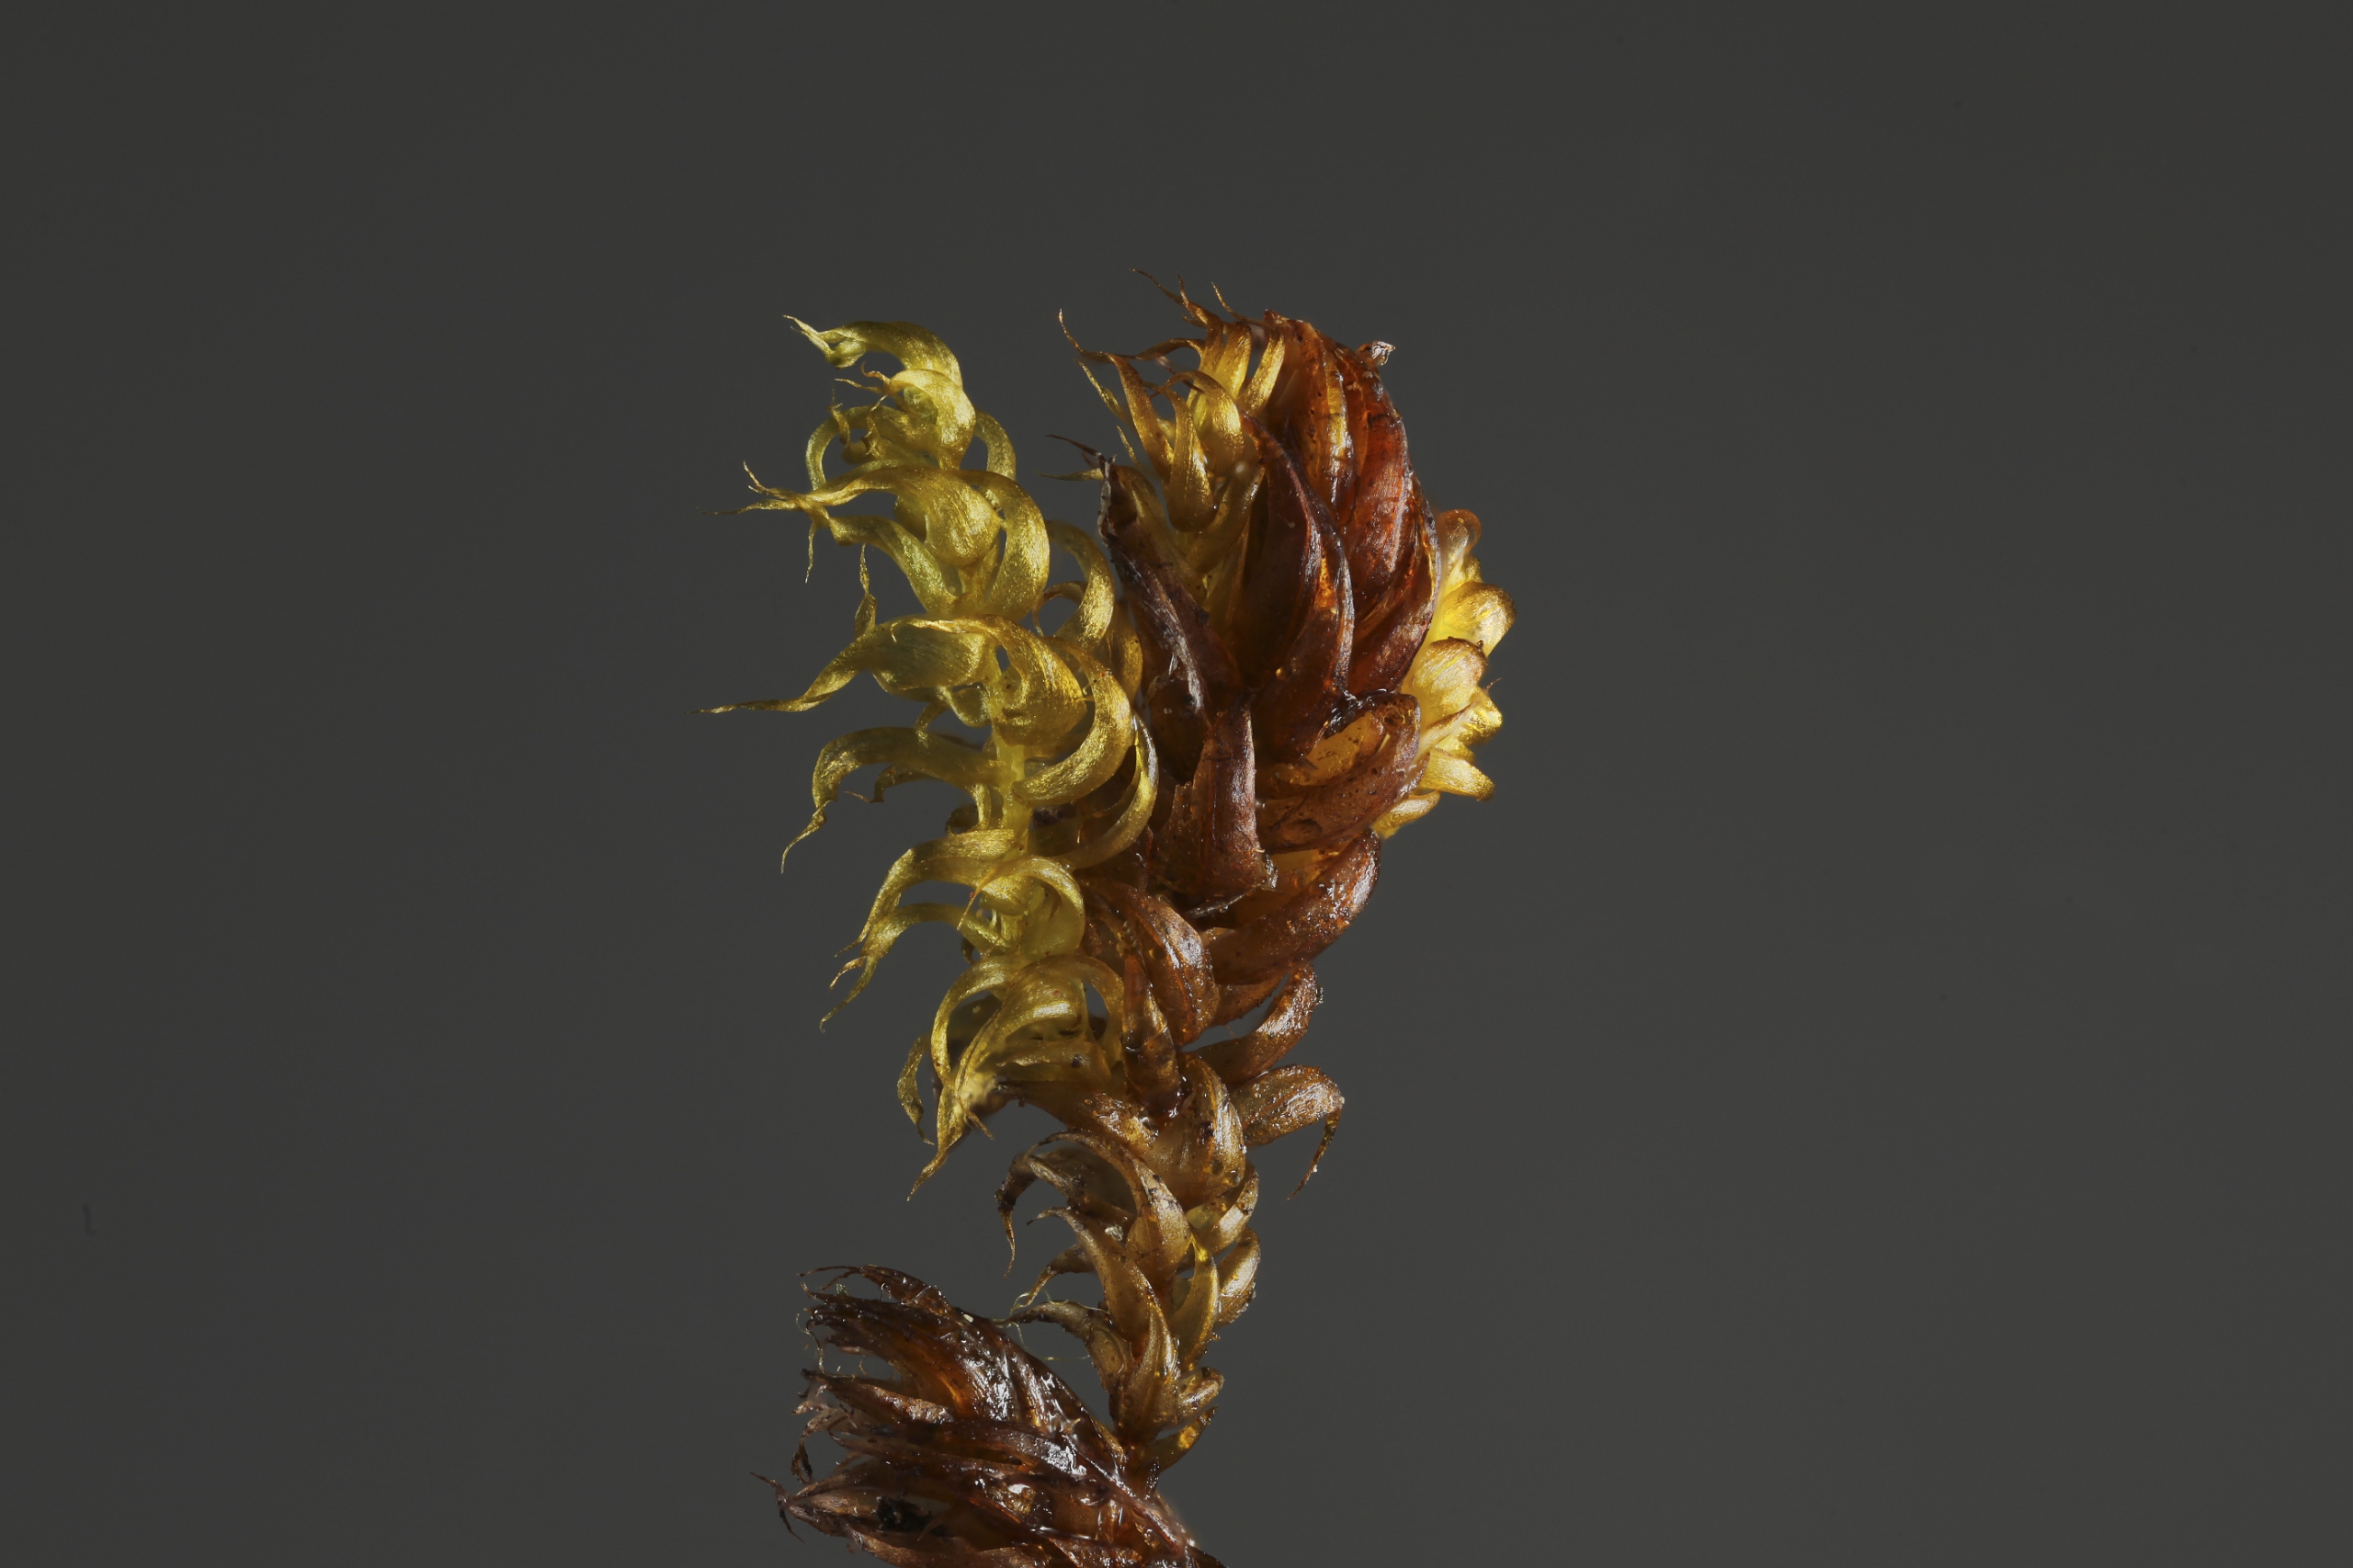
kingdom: Plantae
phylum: Bryophyta
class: Bryopsida
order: Hypnales
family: Amblystegiaceae
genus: Drepanocladus
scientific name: Drepanocladus lycopodioides
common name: Blød seglmos
